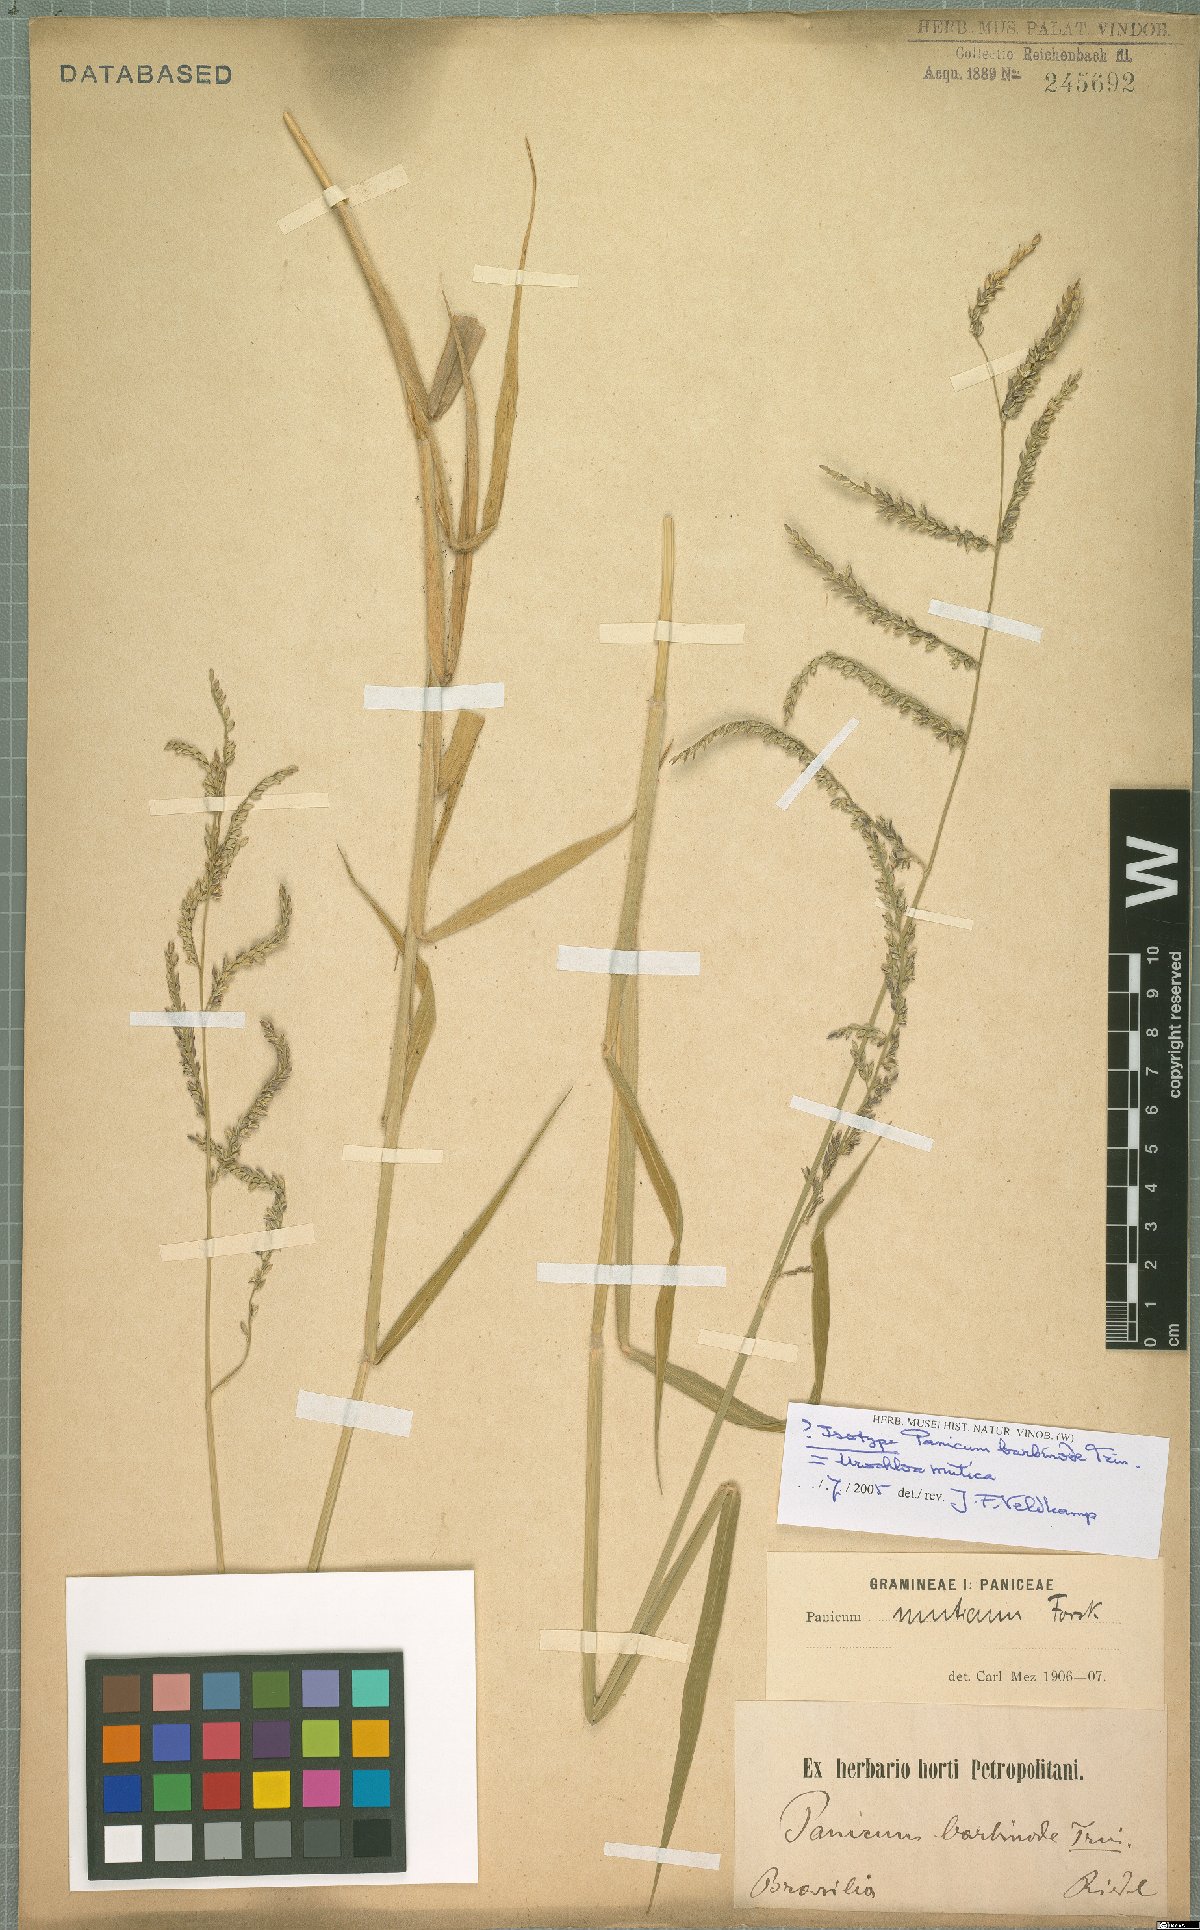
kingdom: Plantae
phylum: Tracheophyta
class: Liliopsida
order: Poales
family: Poaceae
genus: Urochloa
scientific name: Urochloa mutica
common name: Para grass
